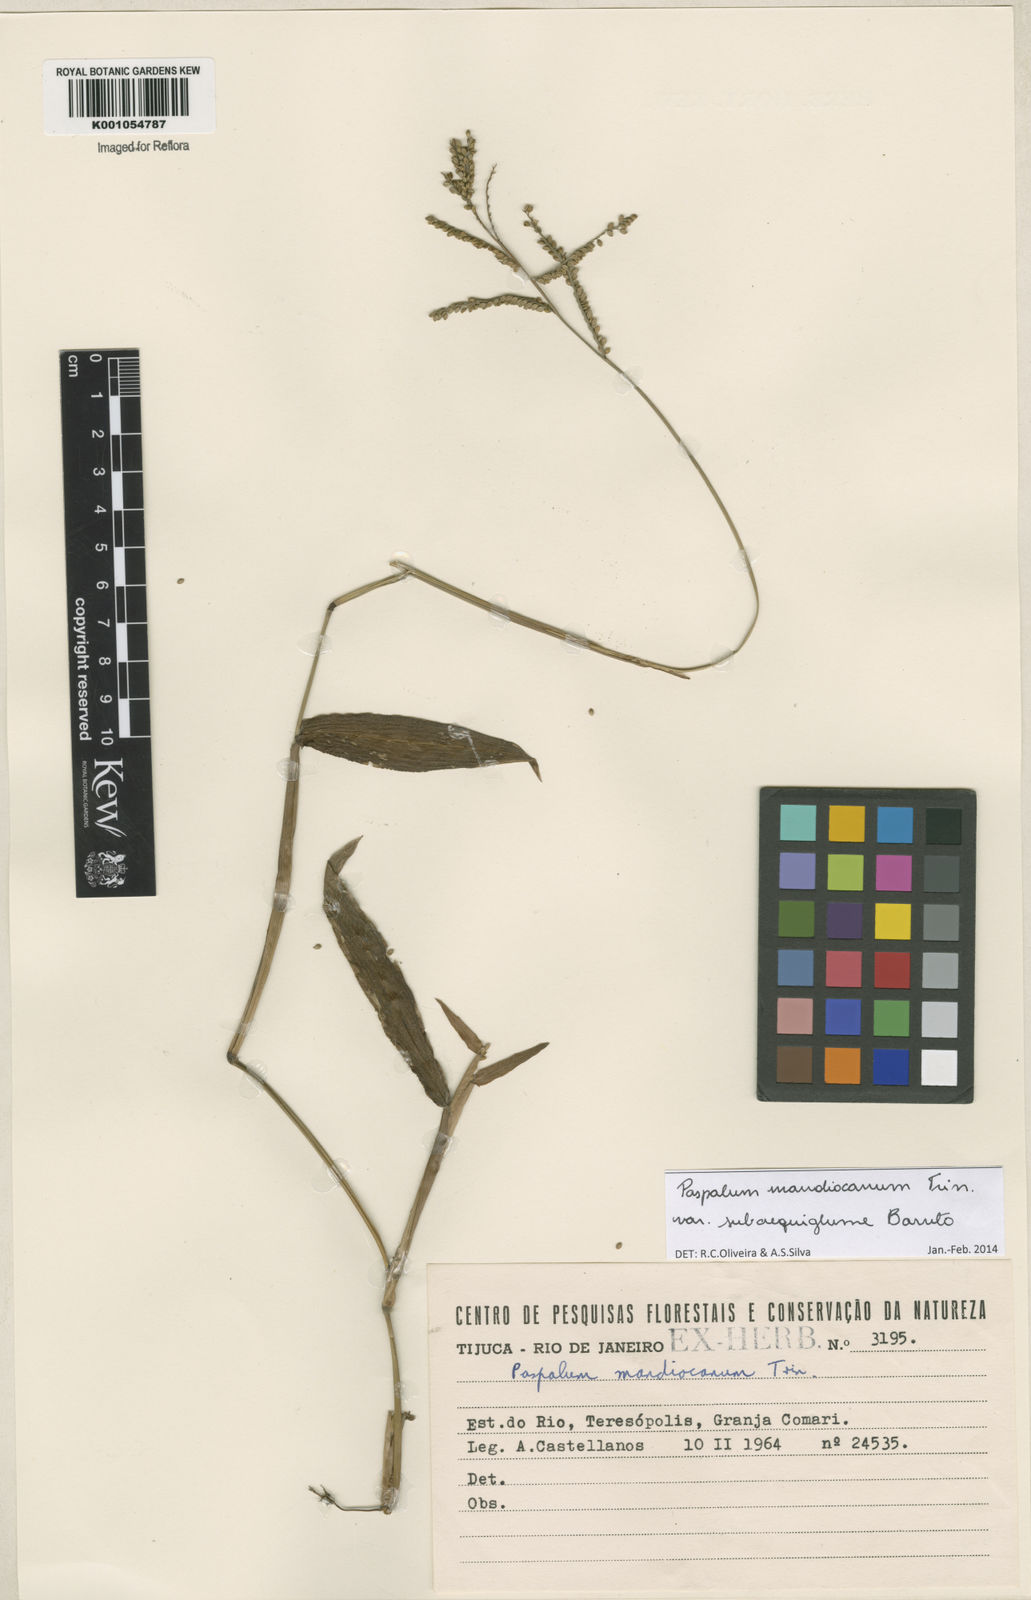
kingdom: Plantae
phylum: Tracheophyta
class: Liliopsida
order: Poales
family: Poaceae
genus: Paspalum
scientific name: Paspalum mandiocanum
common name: Paspalum
